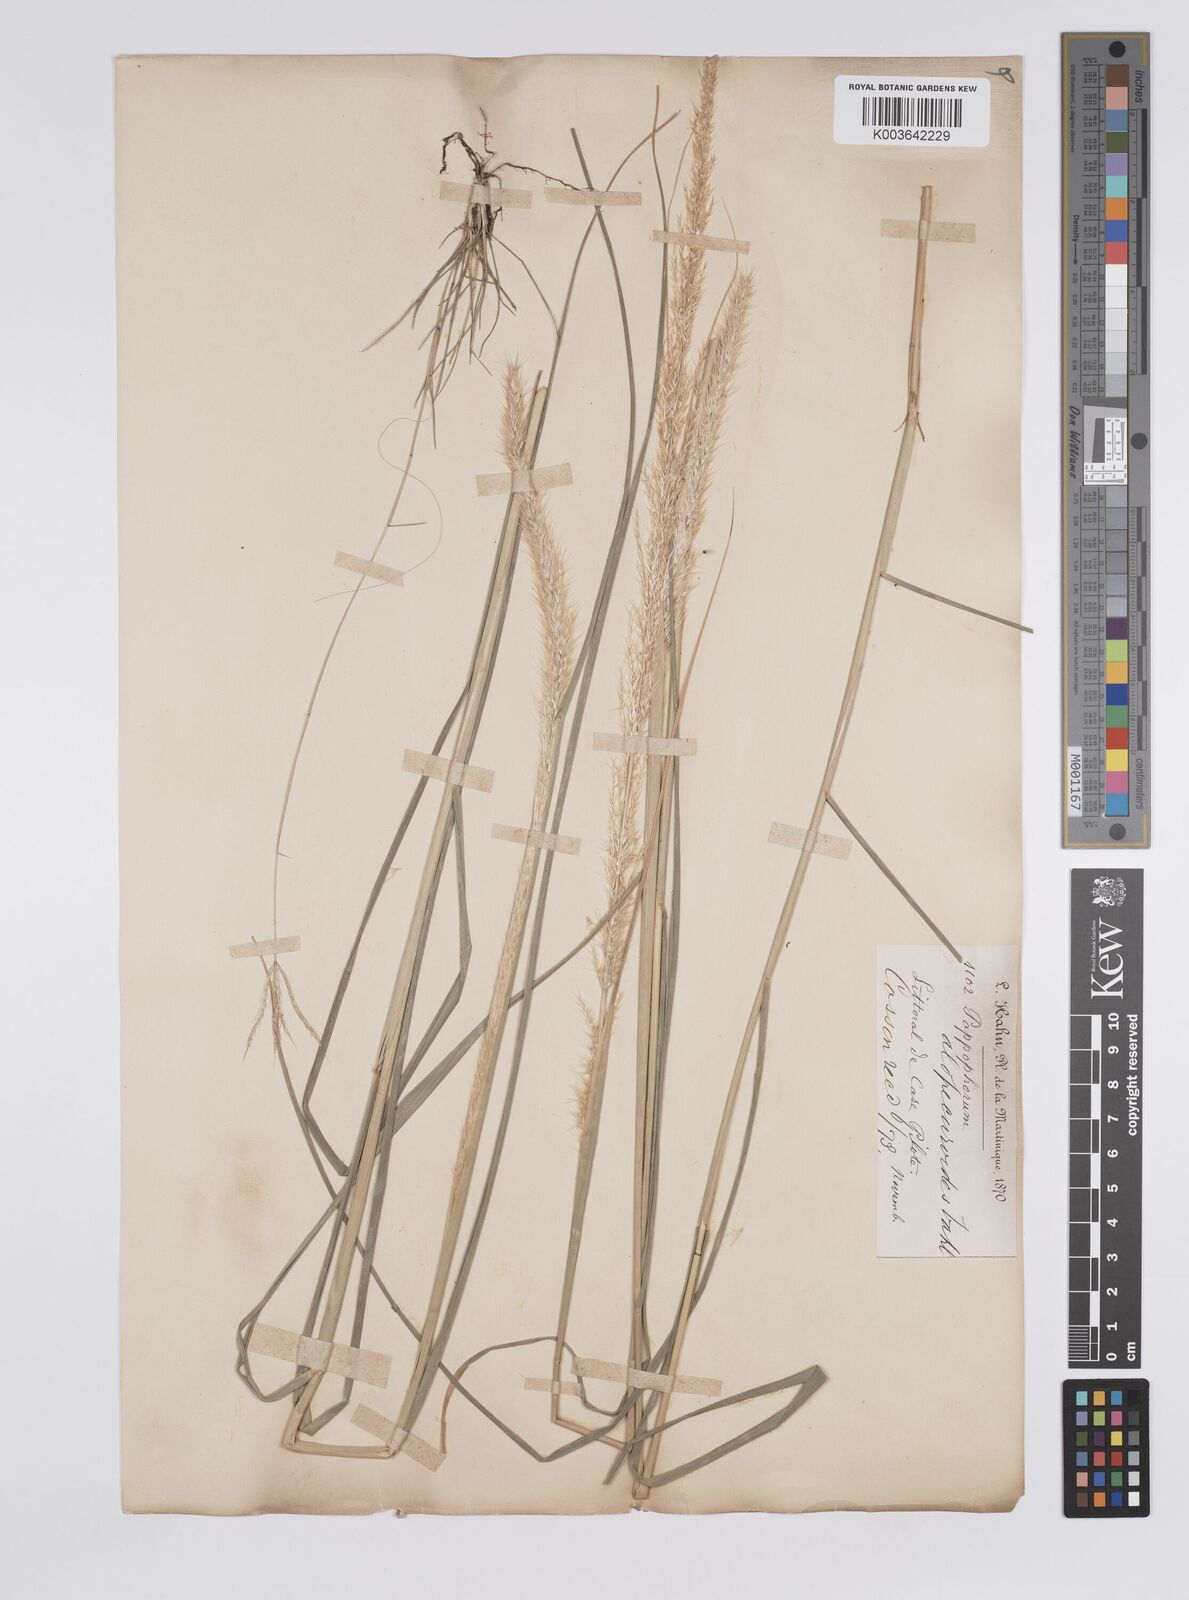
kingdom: Plantae
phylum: Tracheophyta
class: Liliopsida
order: Poales
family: Poaceae
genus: Pappophorum
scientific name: Pappophorum pappiferum
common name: Crabgrass
